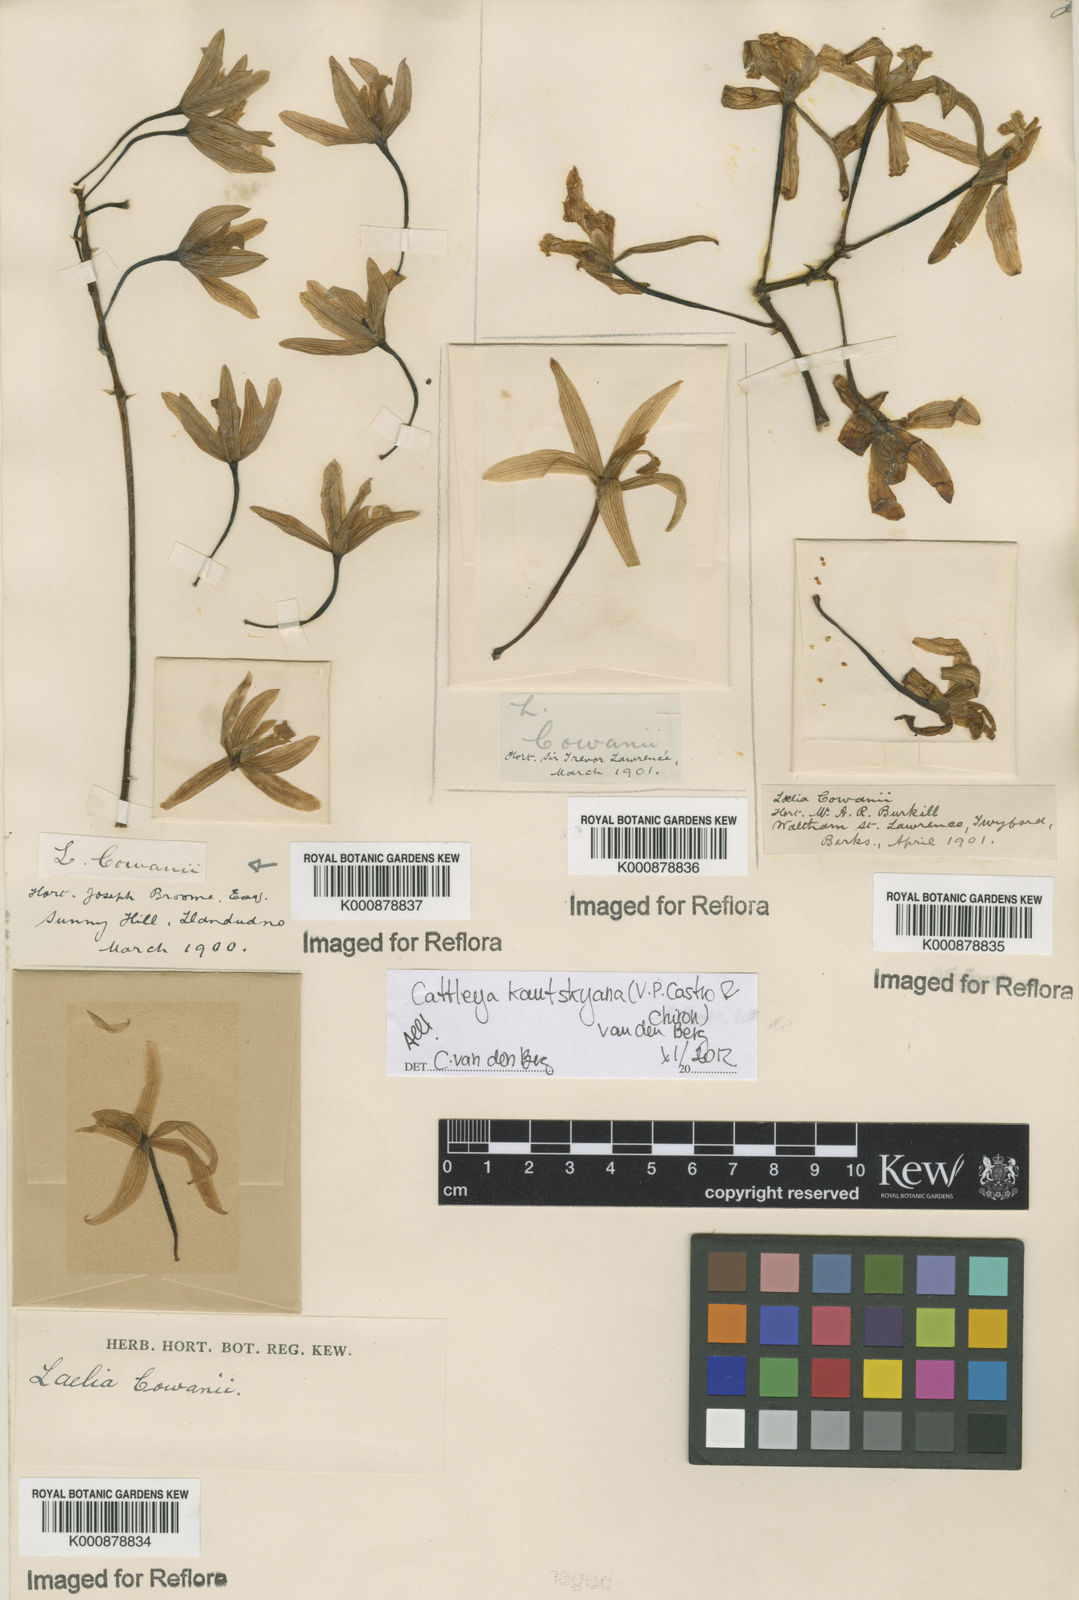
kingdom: Plantae
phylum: Tracheophyta
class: Liliopsida
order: Asparagales
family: Orchidaceae
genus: Cattleya
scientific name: Cattleya kautskyana
